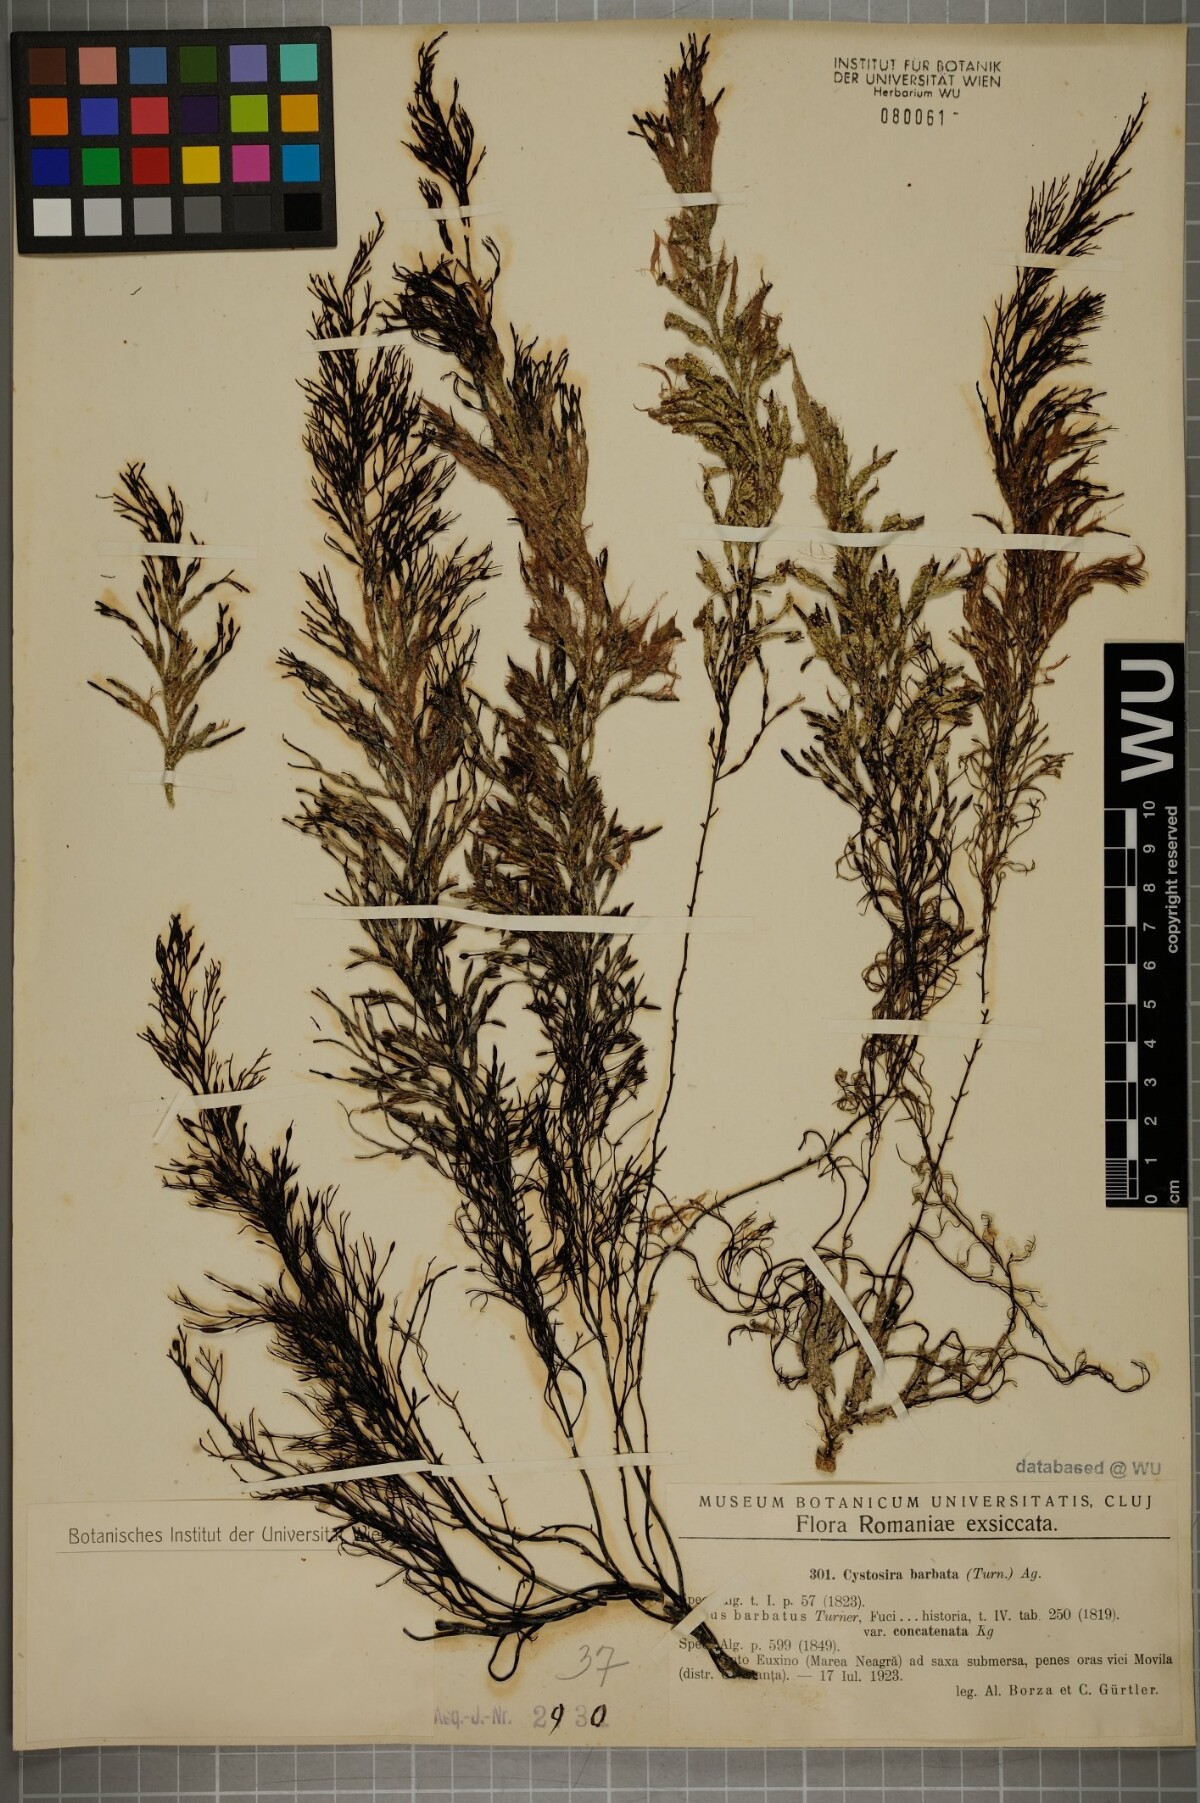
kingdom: Chromista
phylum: Ochrophyta
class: Phaeophyceae
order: Fucales
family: Sargassaceae
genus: Cystoseira
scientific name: Cystoseira Gongolaria barbata
